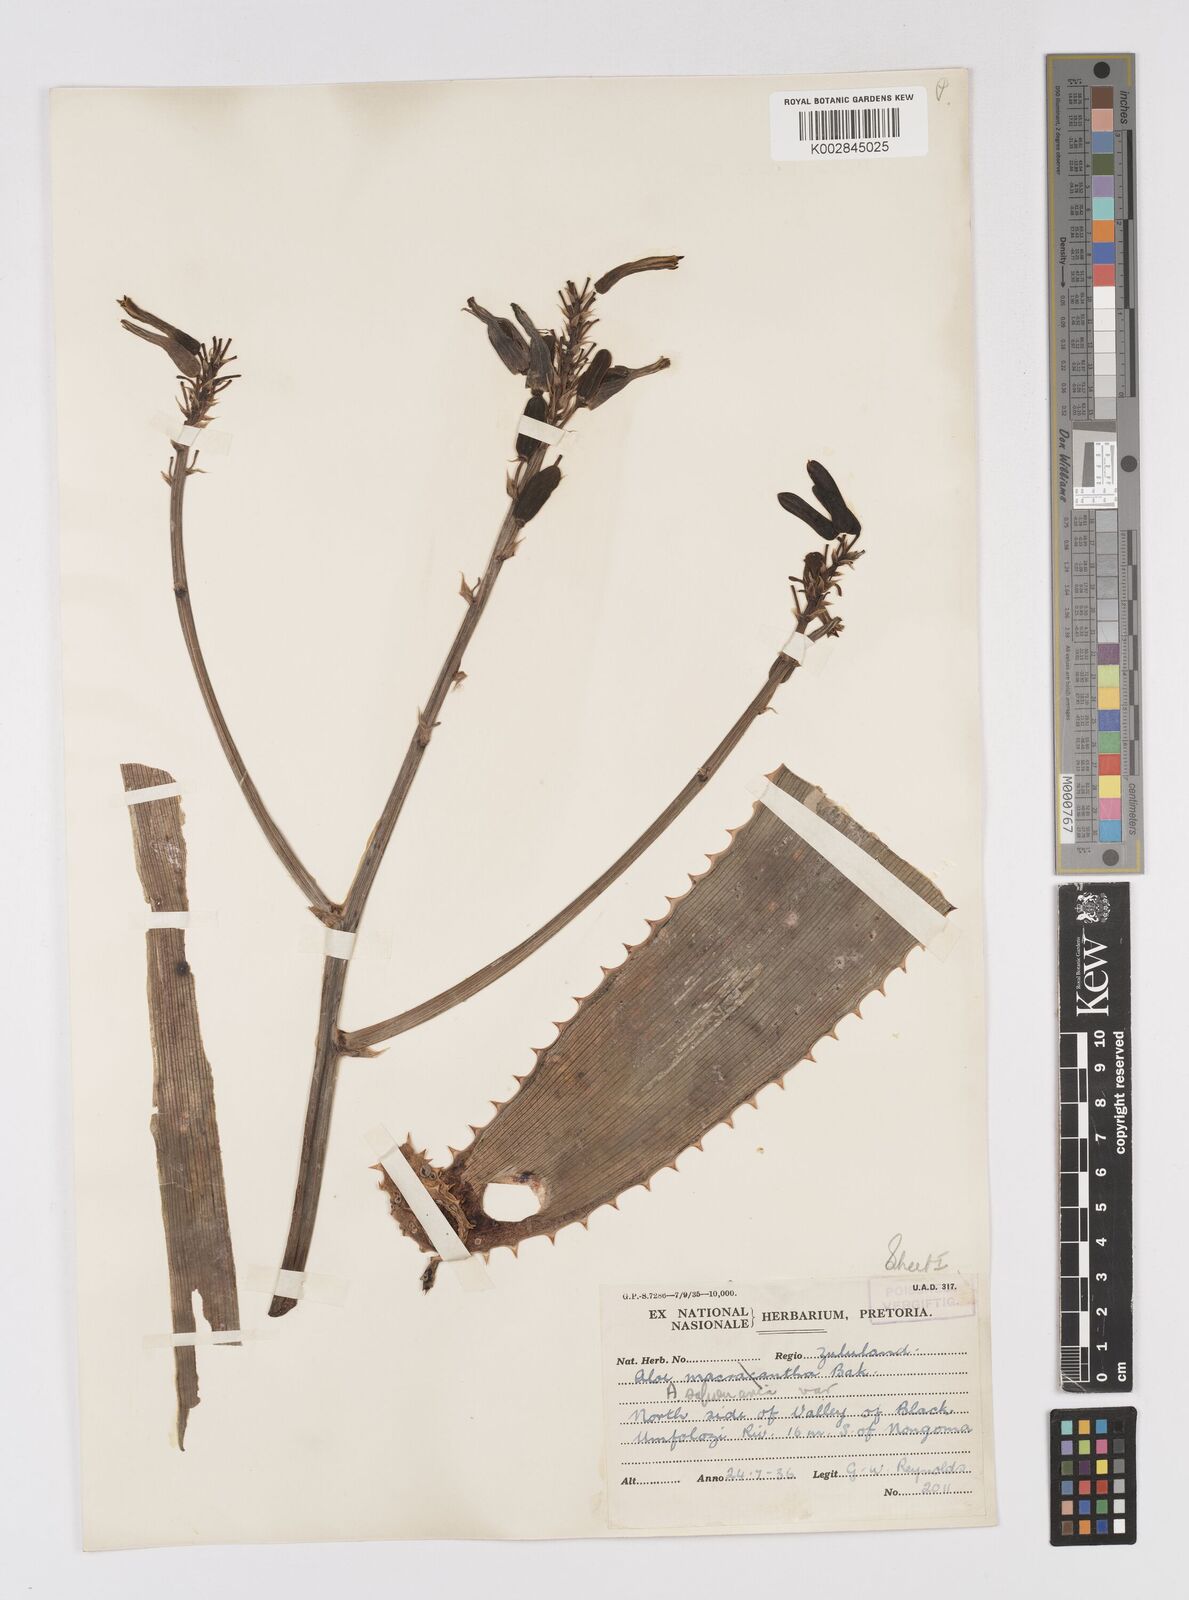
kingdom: Plantae
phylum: Tracheophyta
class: Liliopsida
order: Asparagales
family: Asphodelaceae
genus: Aloe
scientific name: Aloe microstigma
